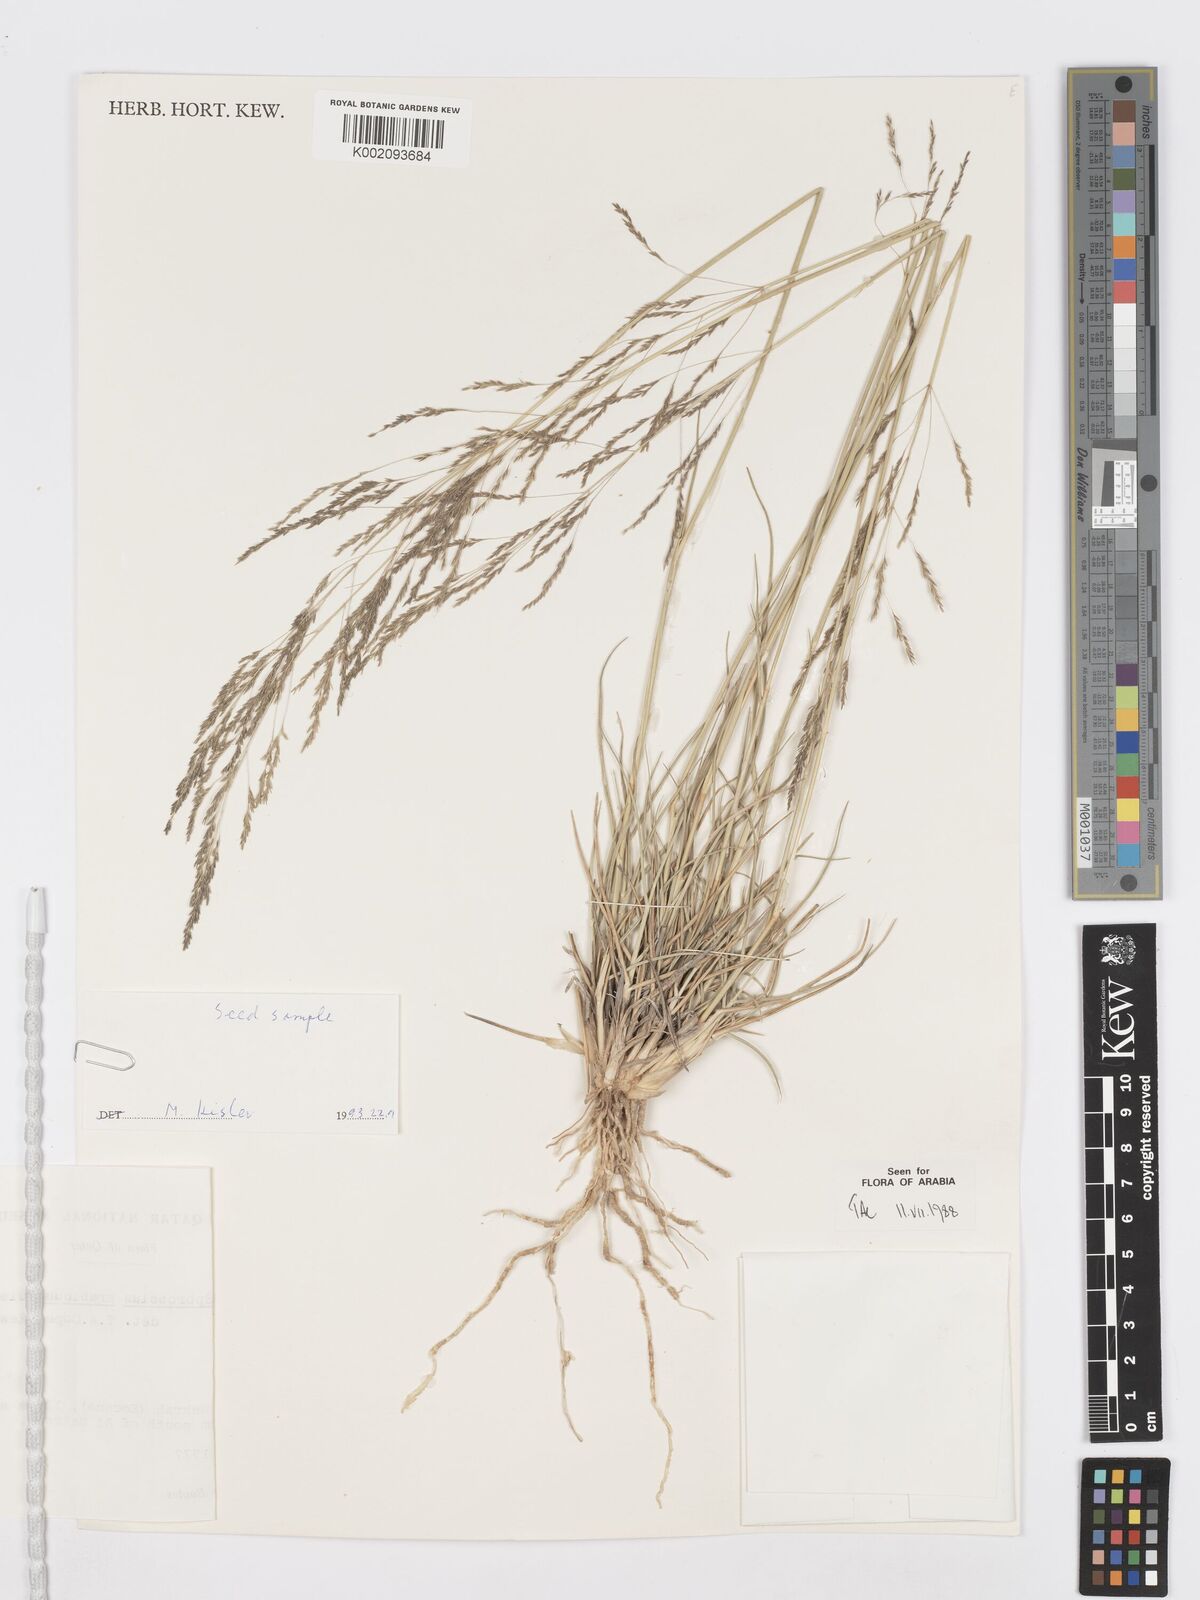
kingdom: Plantae
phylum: Tracheophyta
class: Liliopsida
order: Poales
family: Poaceae
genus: Sporobolus
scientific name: Sporobolus ioclados
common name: Pan dropseed
